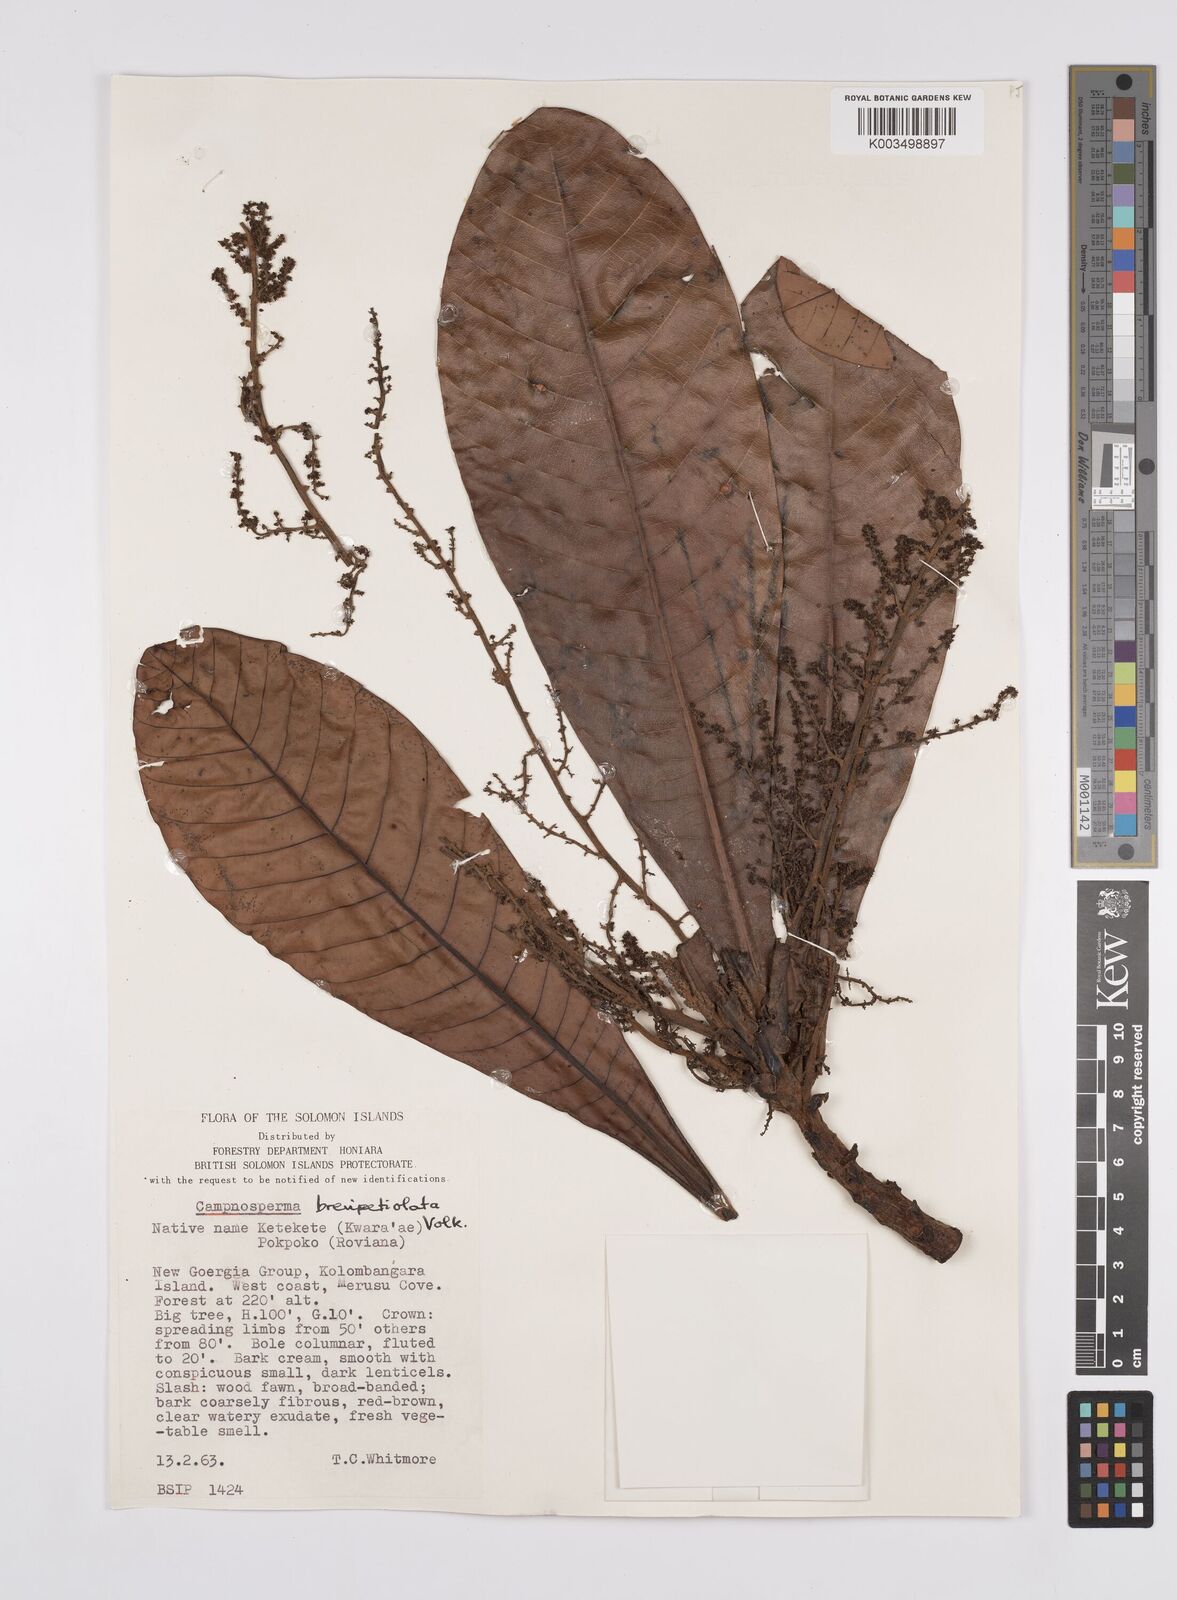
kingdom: Plantae
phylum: Tracheophyta
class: Magnoliopsida
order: Sapindales
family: Anacardiaceae
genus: Campnosperma
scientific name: Campnosperma brevipetiolatum
